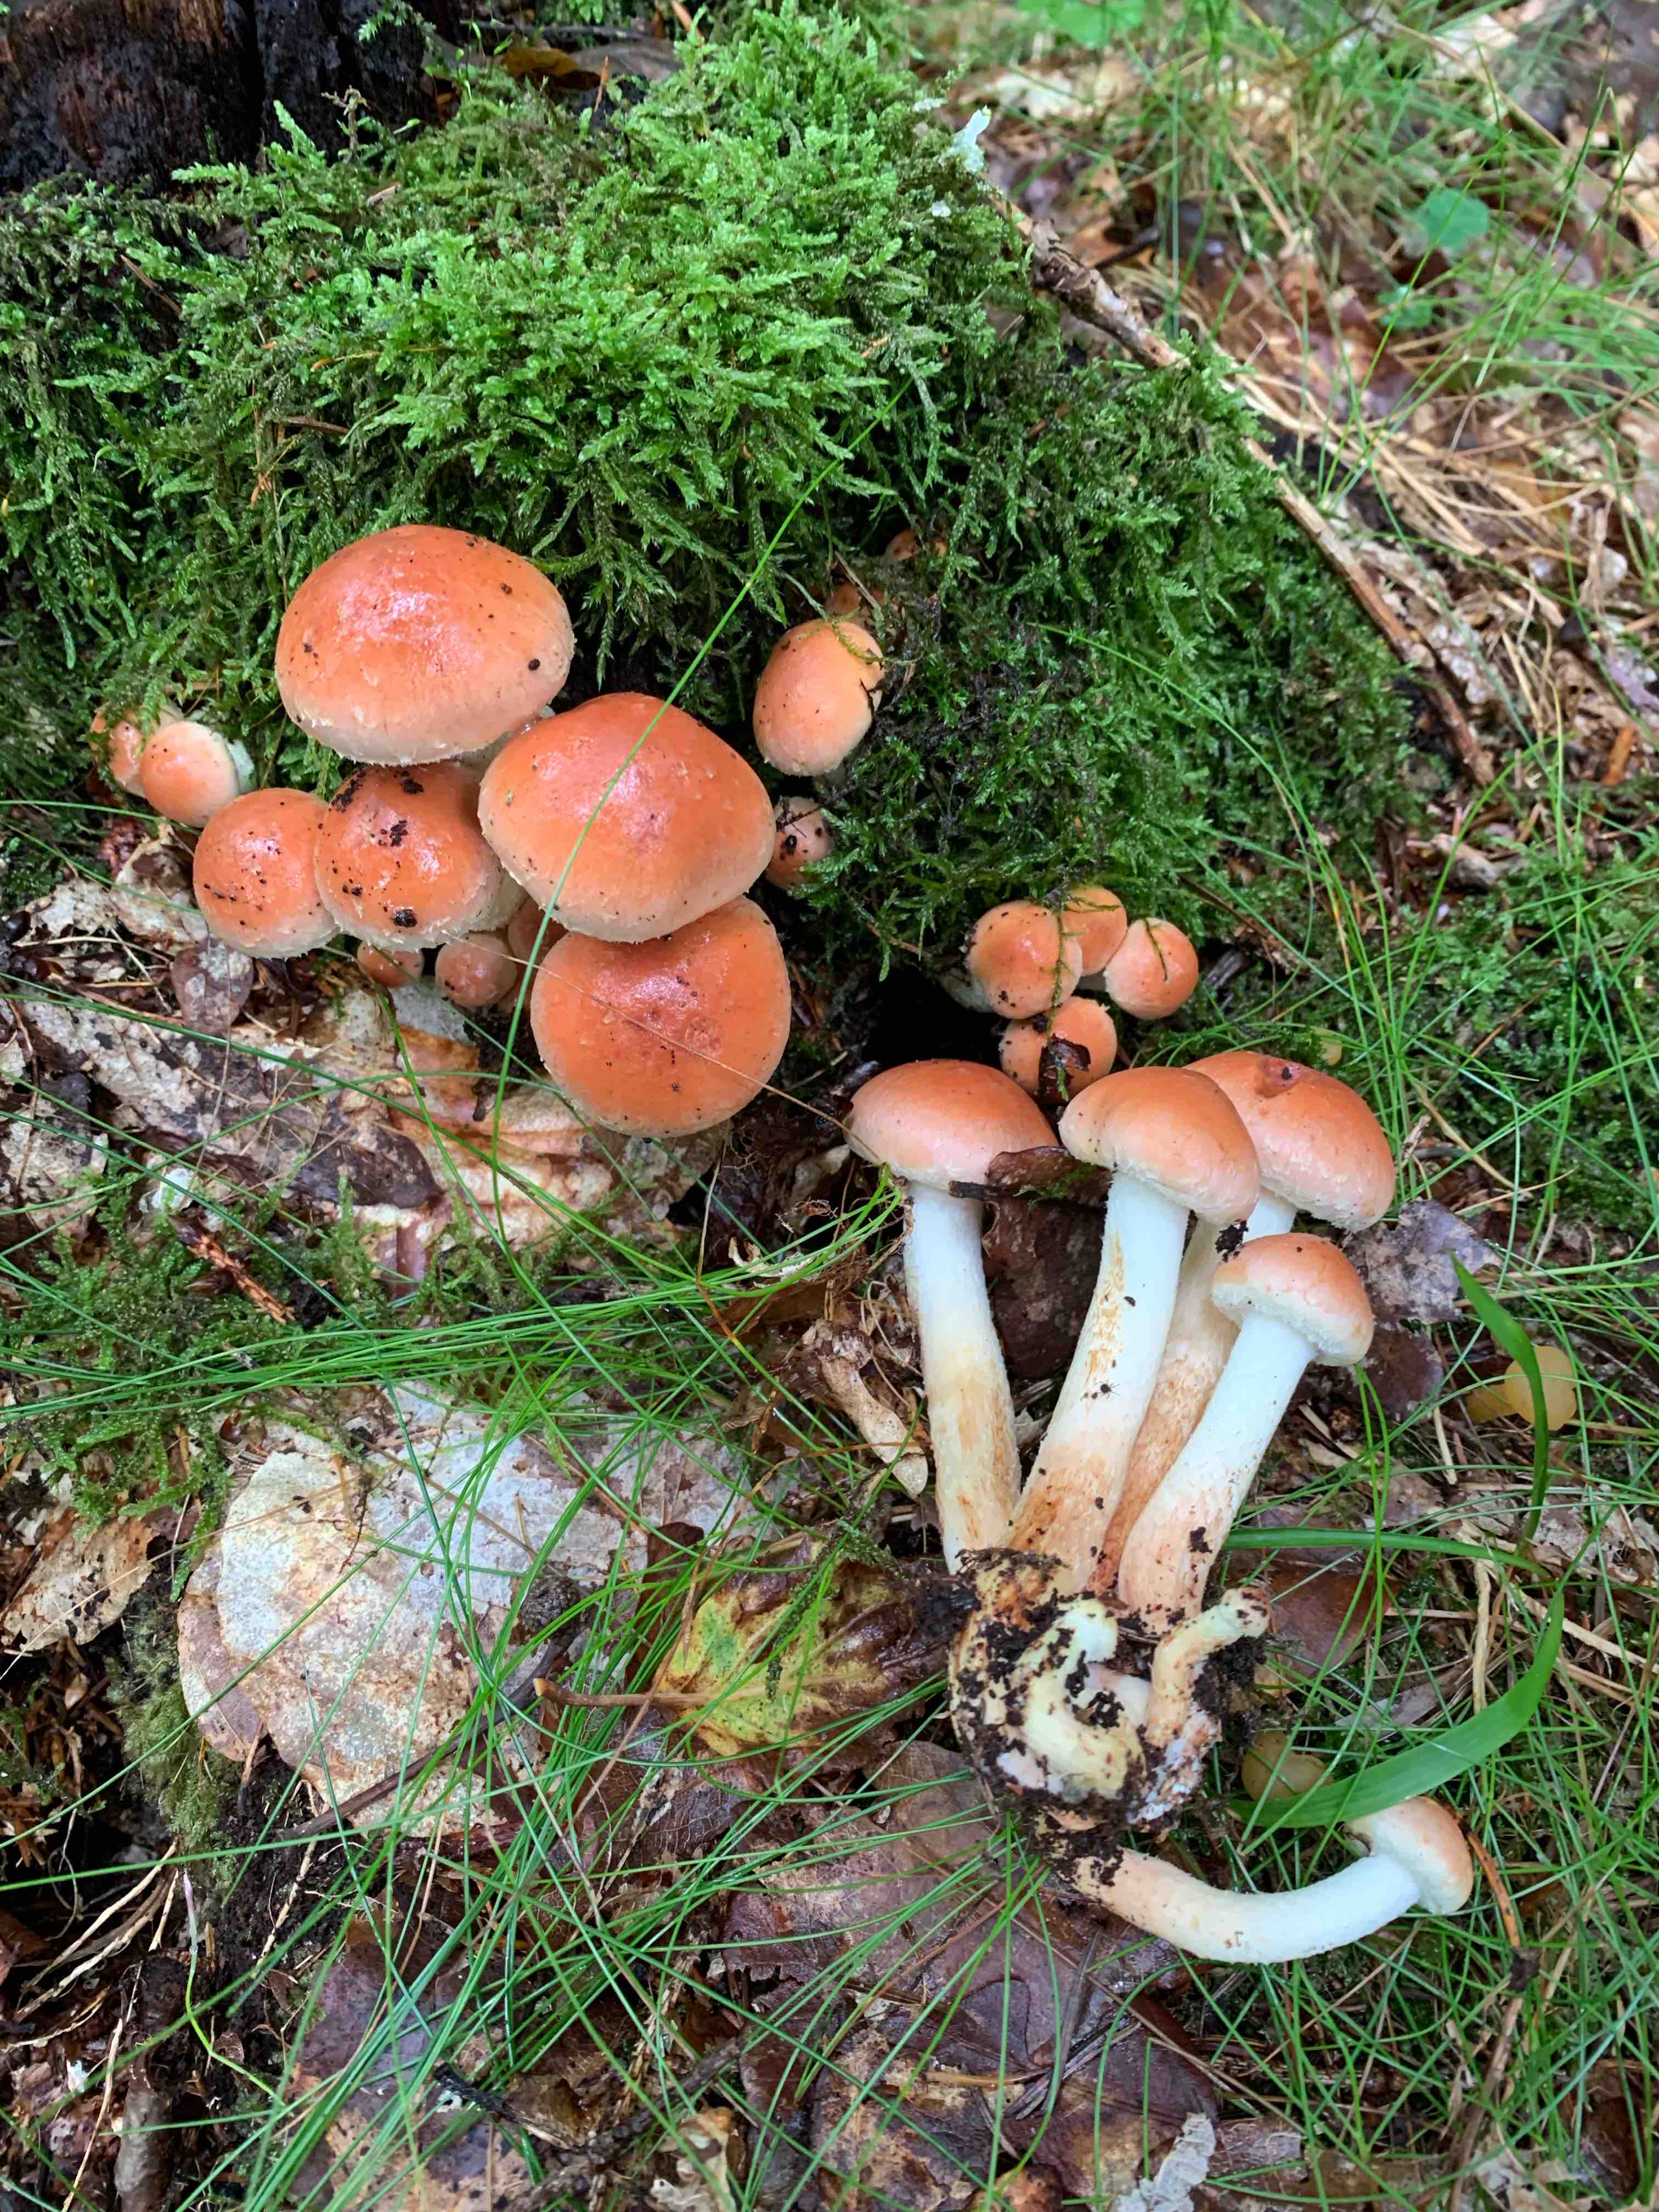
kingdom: Fungi
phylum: Basidiomycota
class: Agaricomycetes
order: Agaricales
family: Strophariaceae
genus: Hypholoma
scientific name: Hypholoma lateritium
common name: teglrød svovlhat
